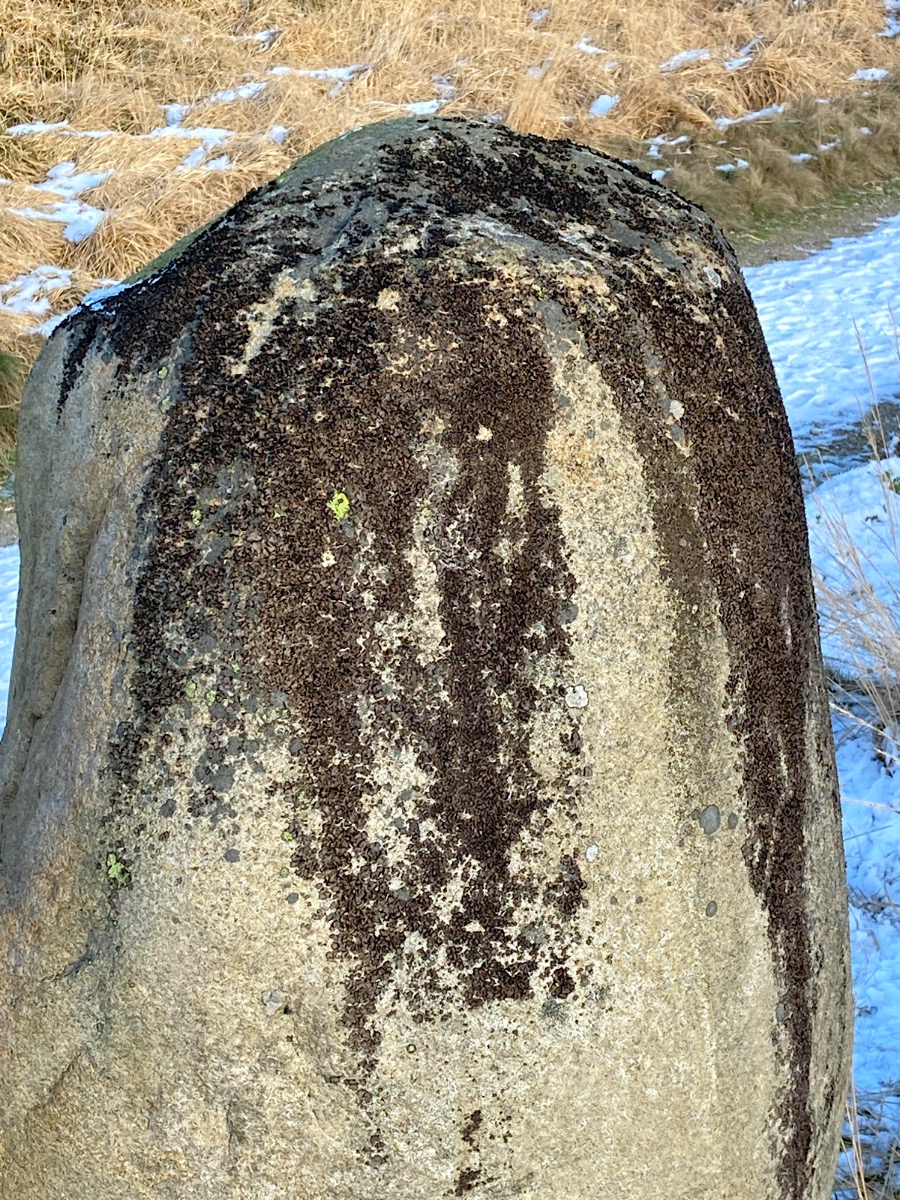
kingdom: Fungi
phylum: Ascomycota
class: Lecanoromycetes
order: Umbilicariales
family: Umbilicariaceae
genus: Umbilicaria
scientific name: Umbilicaria polyphylla
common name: Glat navlelav
